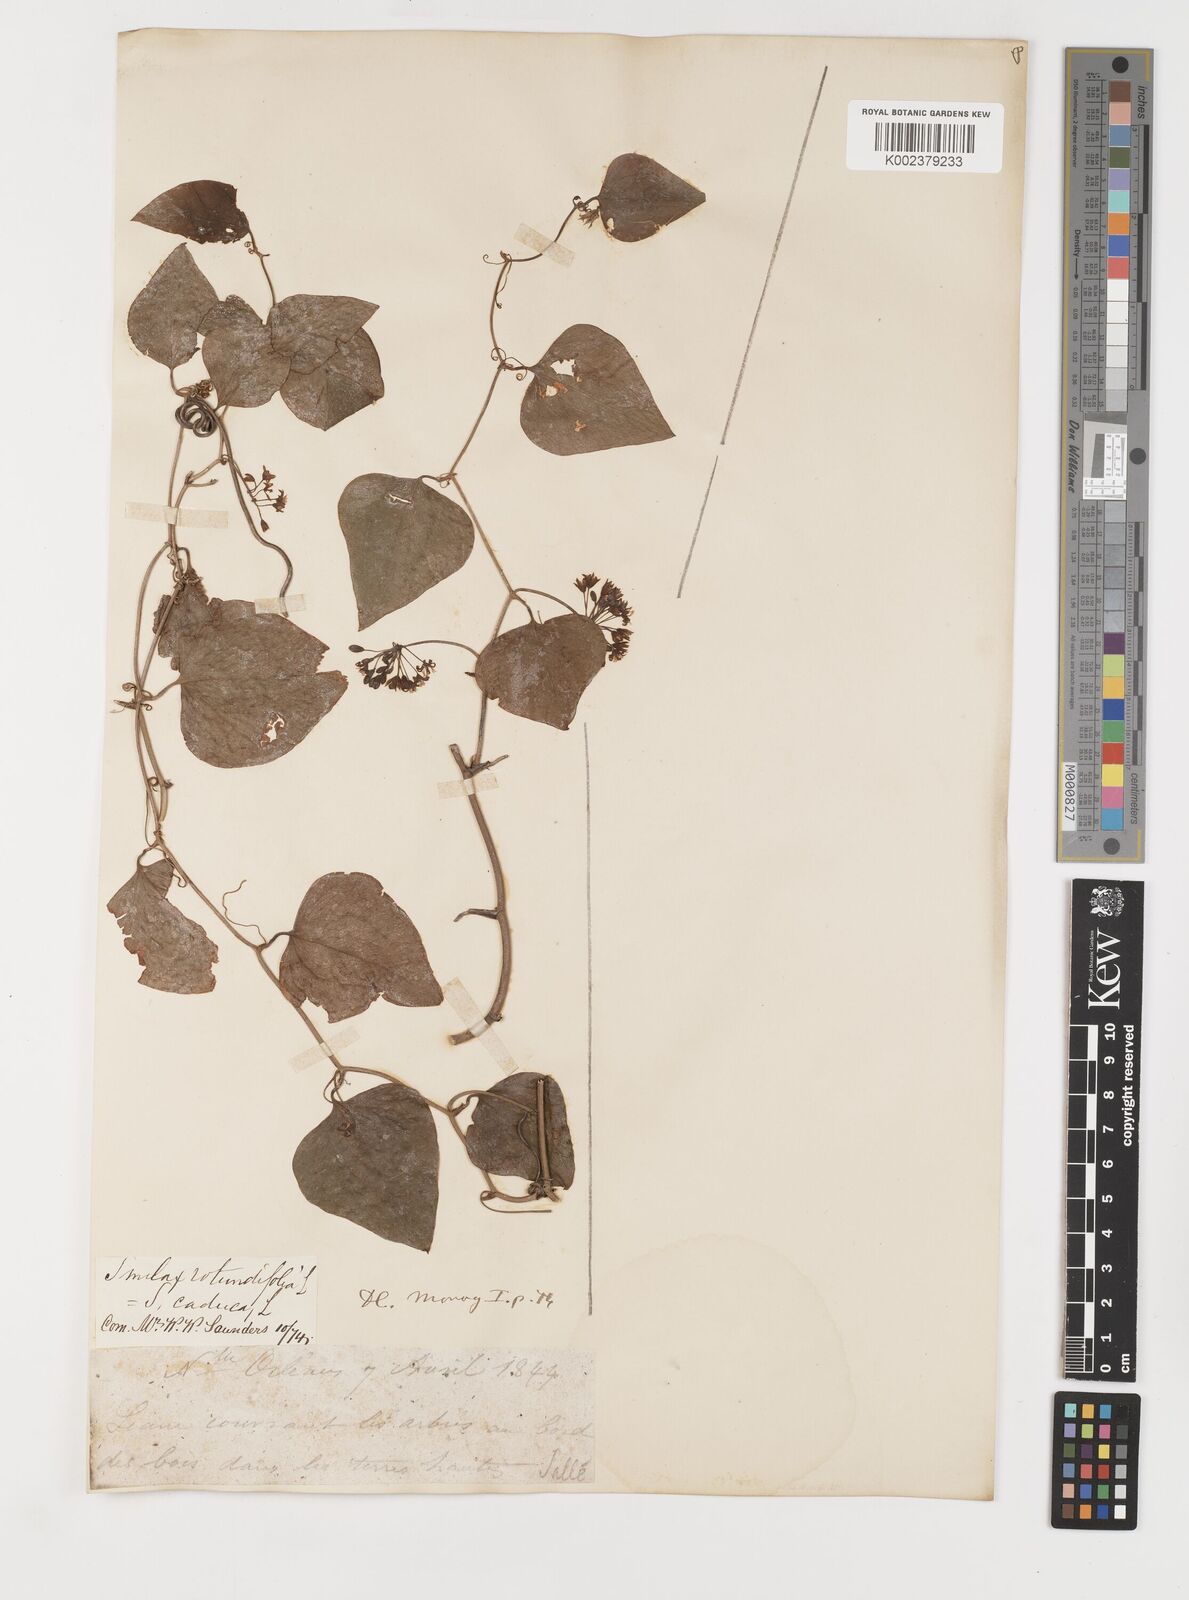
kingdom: Plantae
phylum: Tracheophyta
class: Liliopsida
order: Liliales
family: Smilacaceae
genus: Smilax
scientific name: Smilax rotundifolia
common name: Bullbriar
